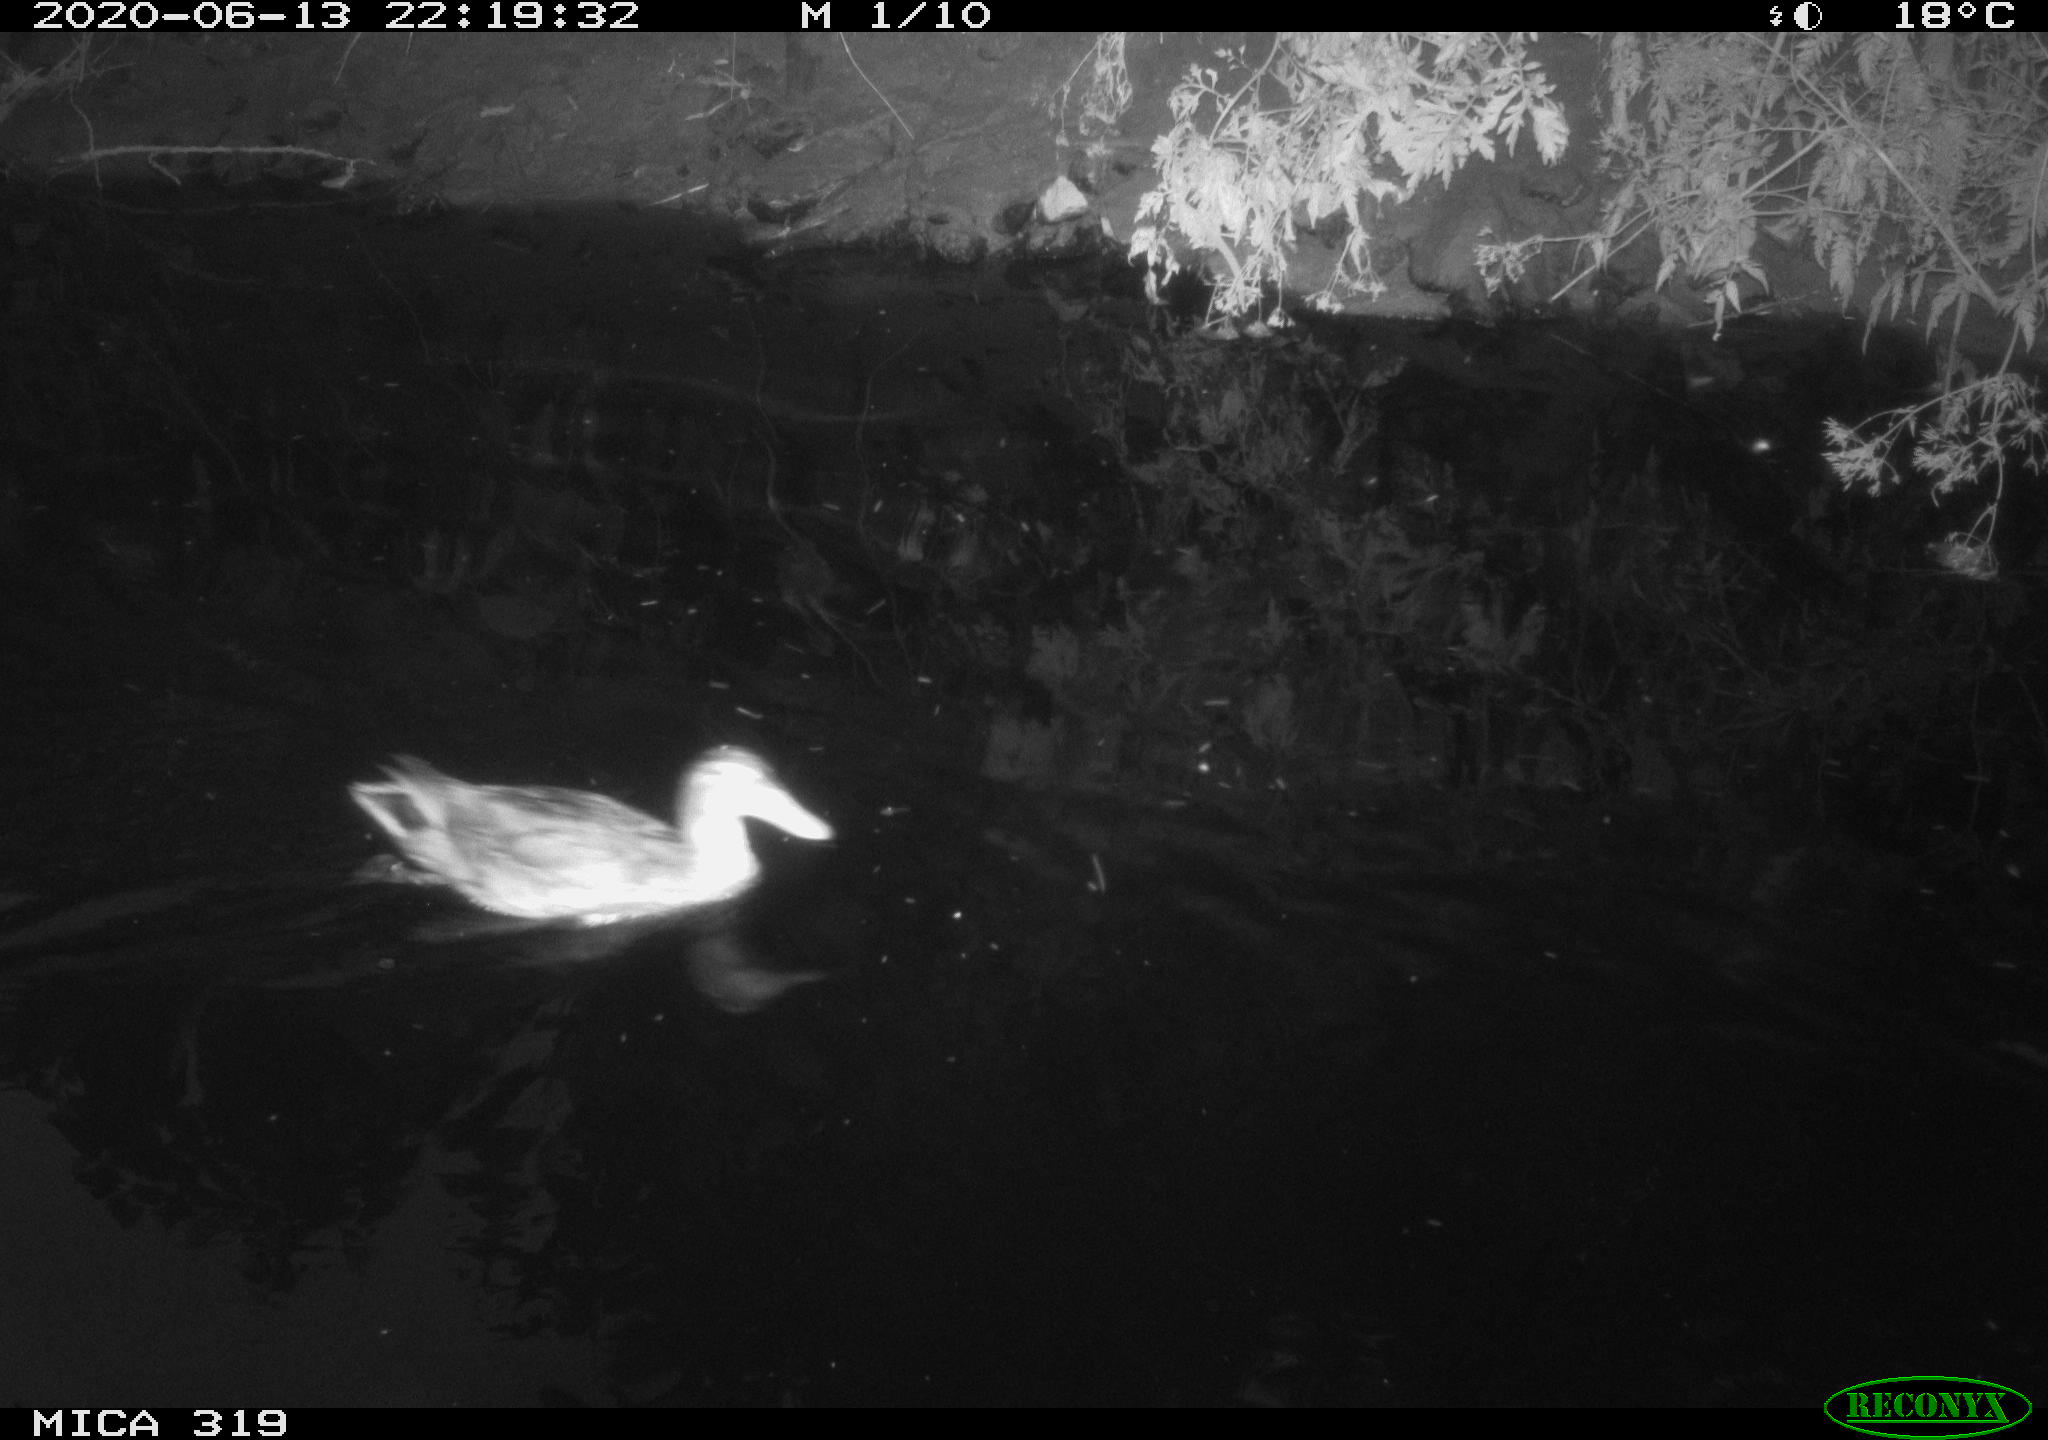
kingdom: Animalia
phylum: Chordata
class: Aves
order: Anseriformes
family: Anatidae
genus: Anas
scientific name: Anas platyrhynchos
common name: Mallard
